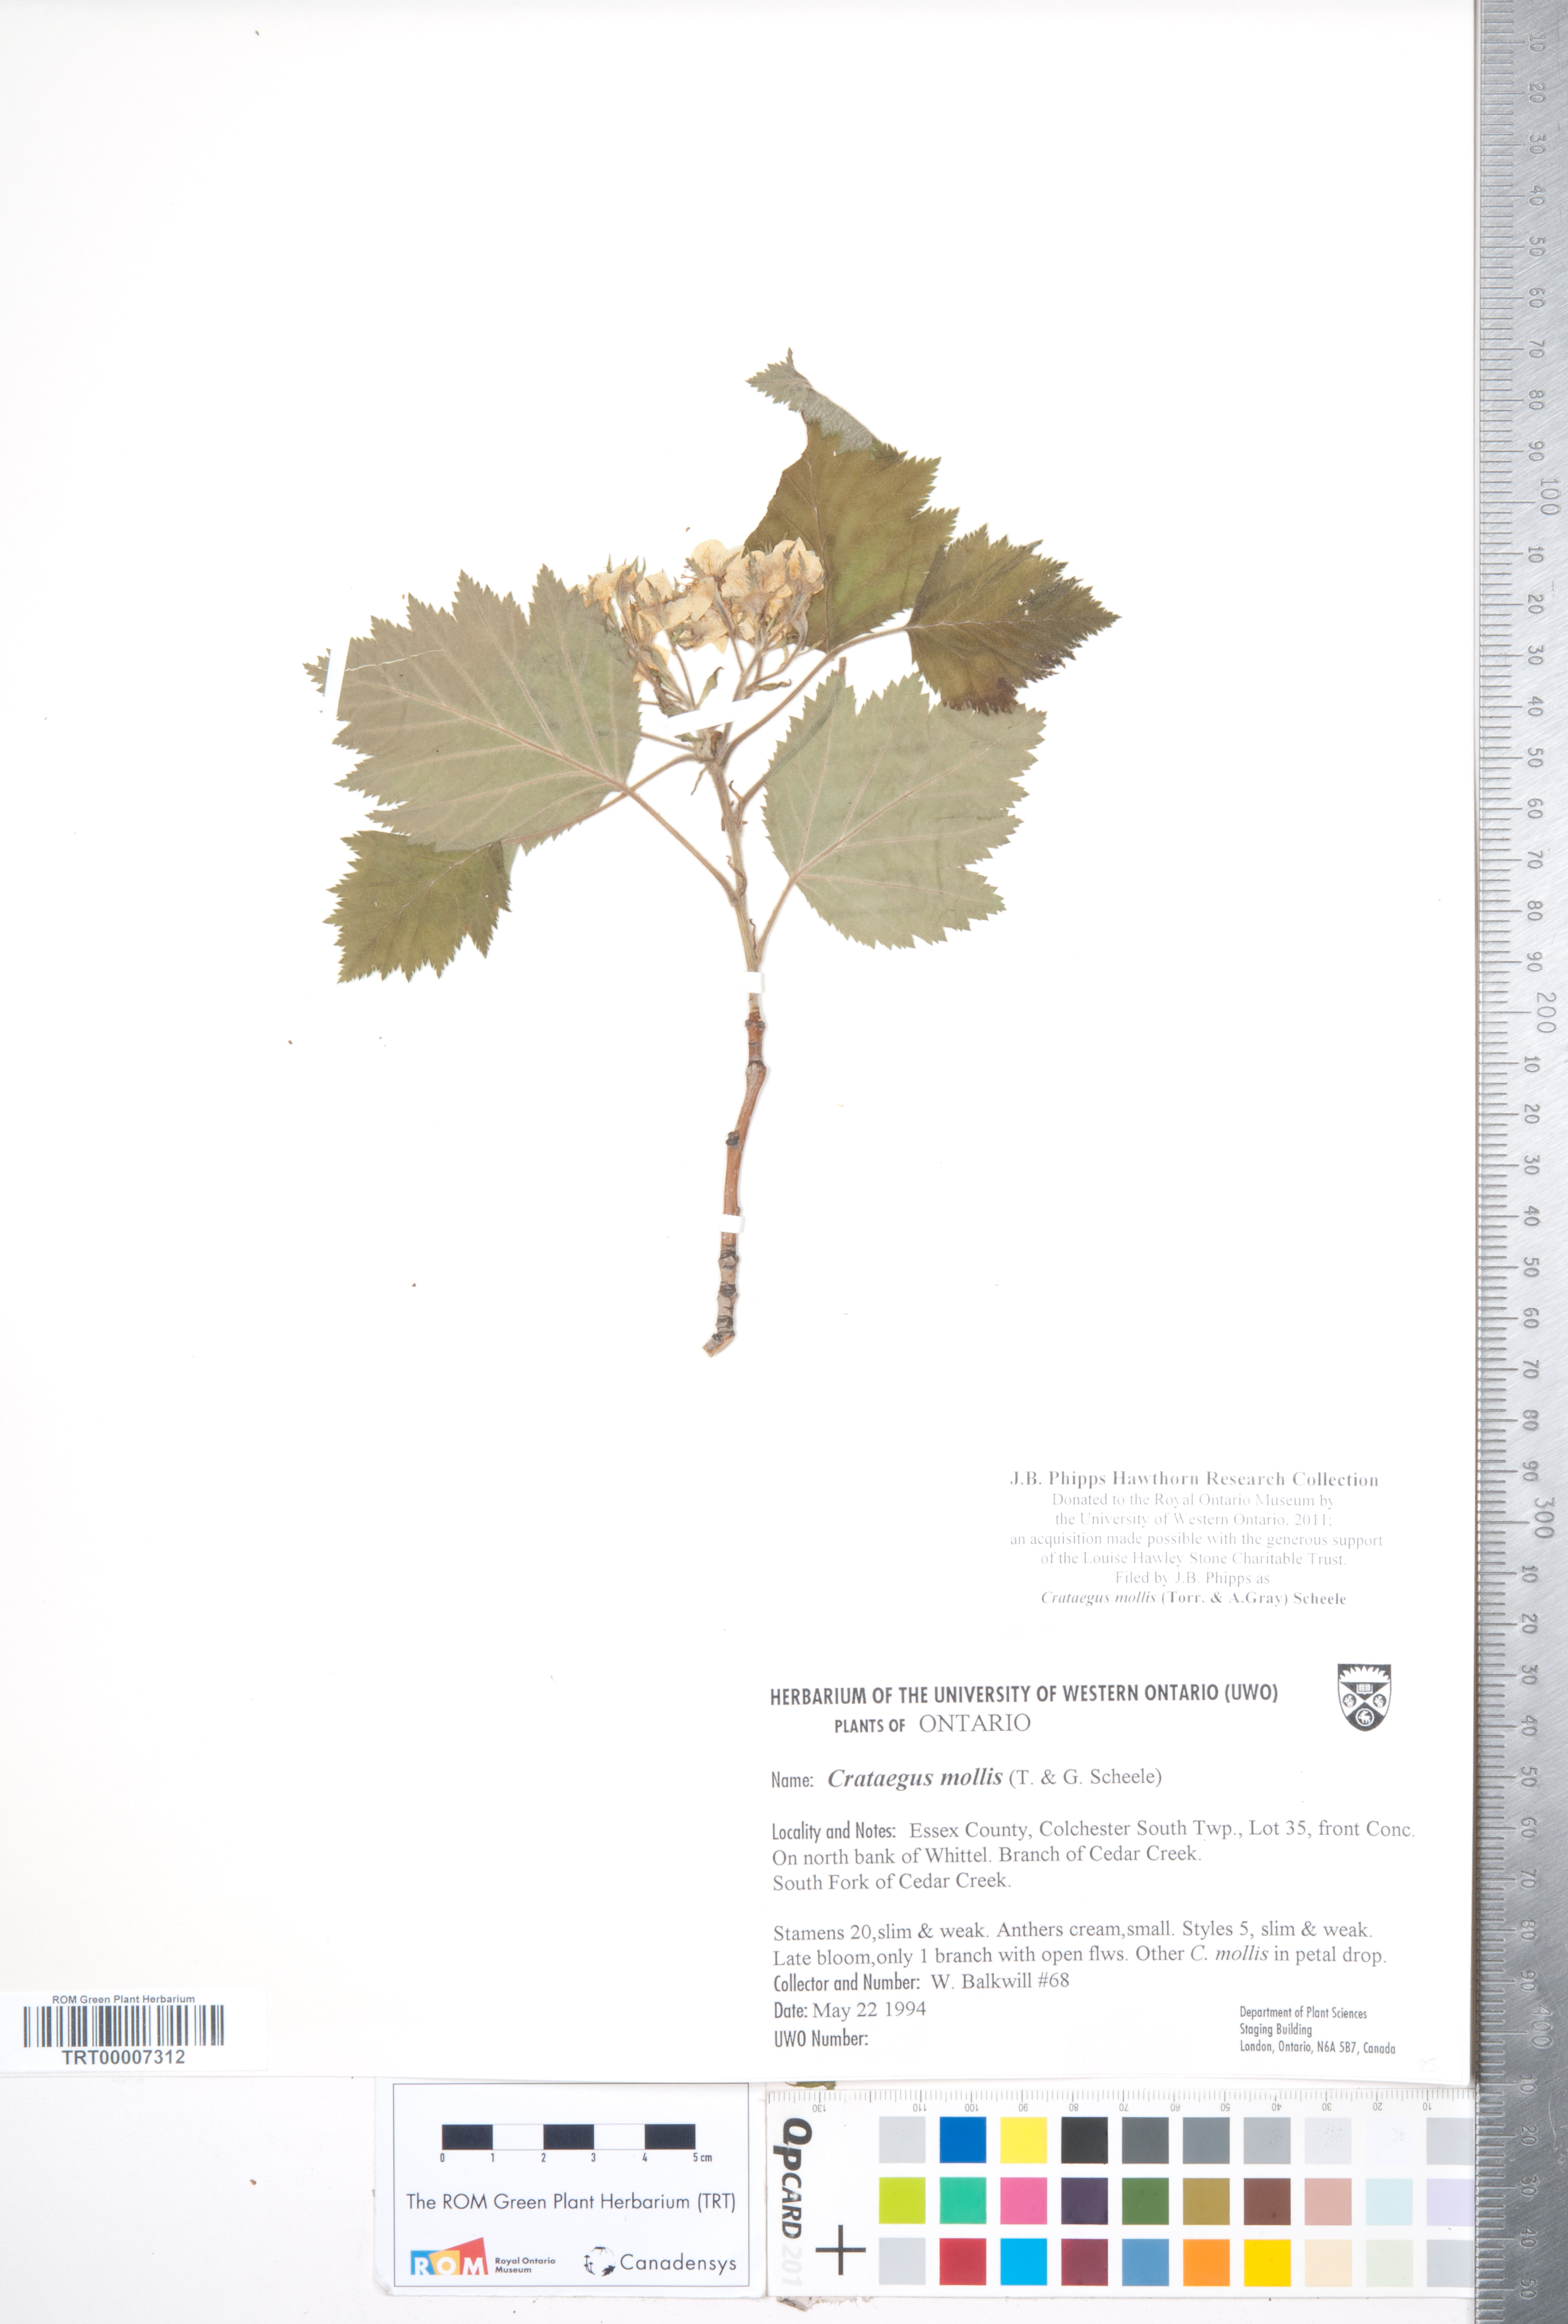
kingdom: Plantae
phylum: Tracheophyta
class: Magnoliopsida
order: Rosales
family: Rosaceae
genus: Crataegus
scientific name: Crataegus mollis
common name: Downy hawthorn
